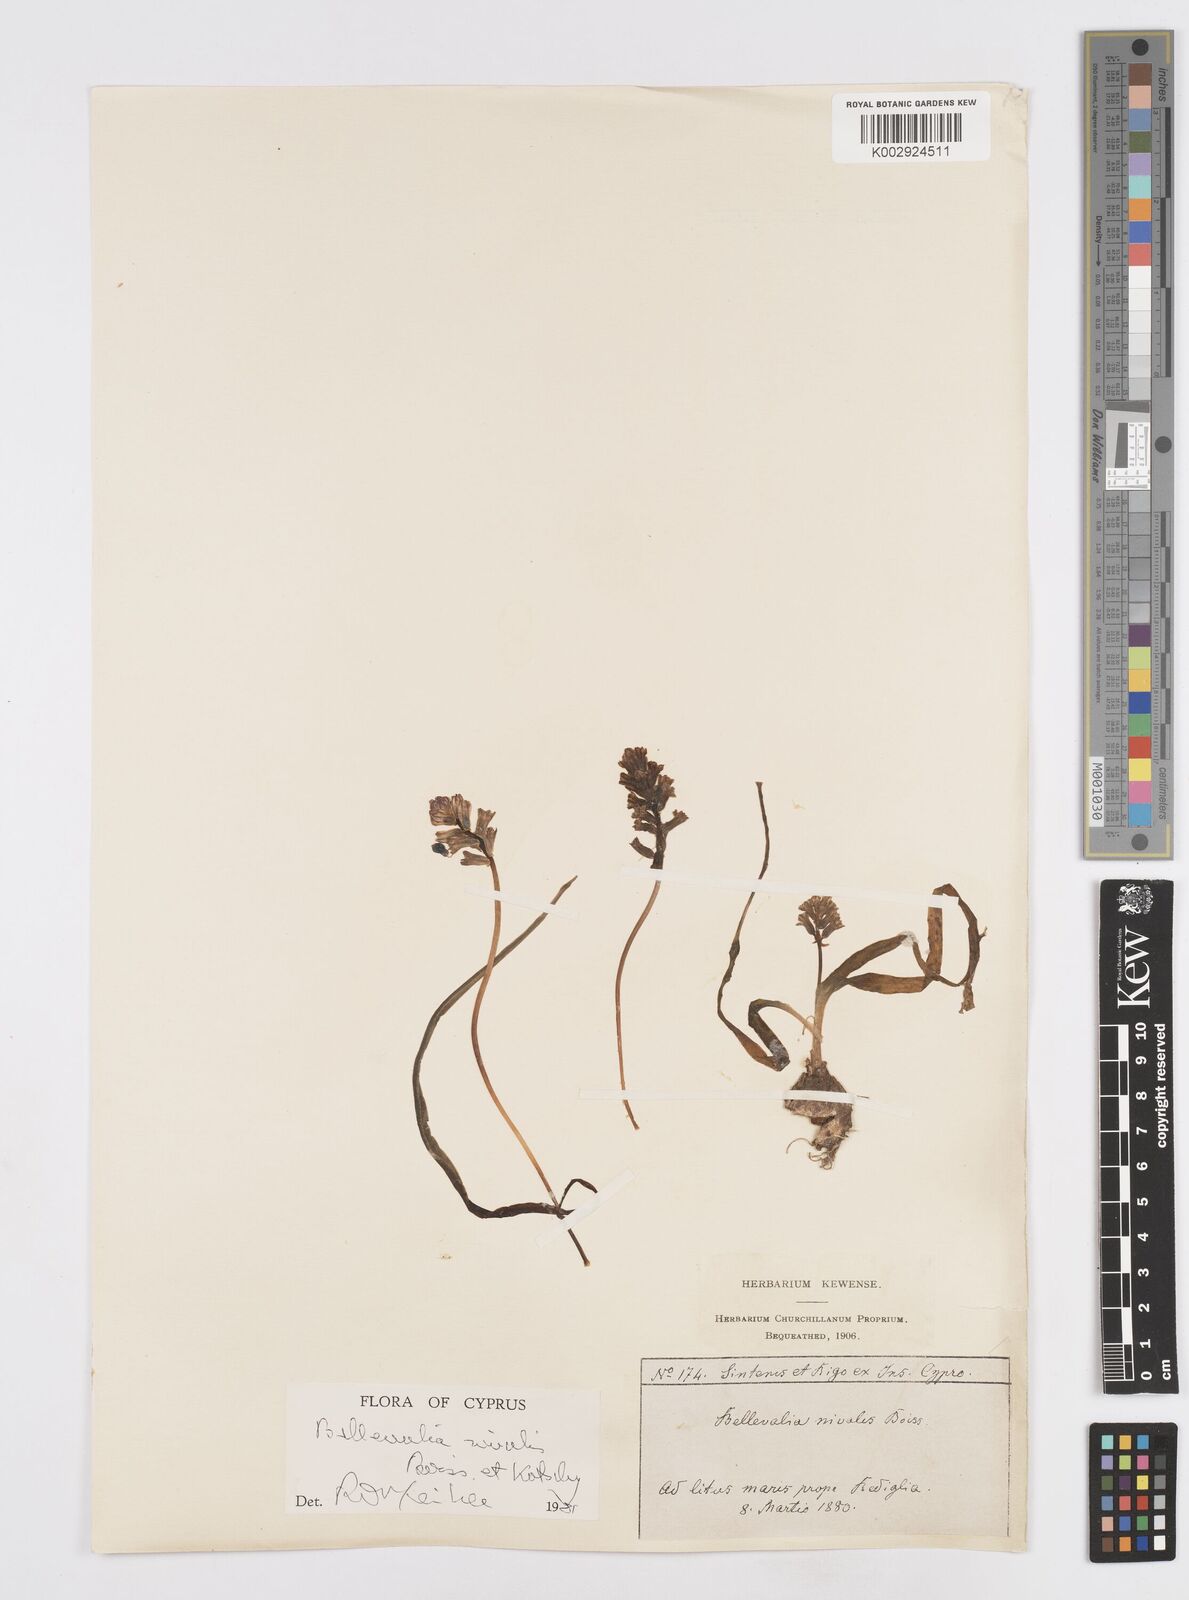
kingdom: Plantae
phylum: Tracheophyta
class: Liliopsida
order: Asparagales
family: Asparagaceae
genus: Bellevalia
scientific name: Bellevalia nivalis
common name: Snow bellevalia
